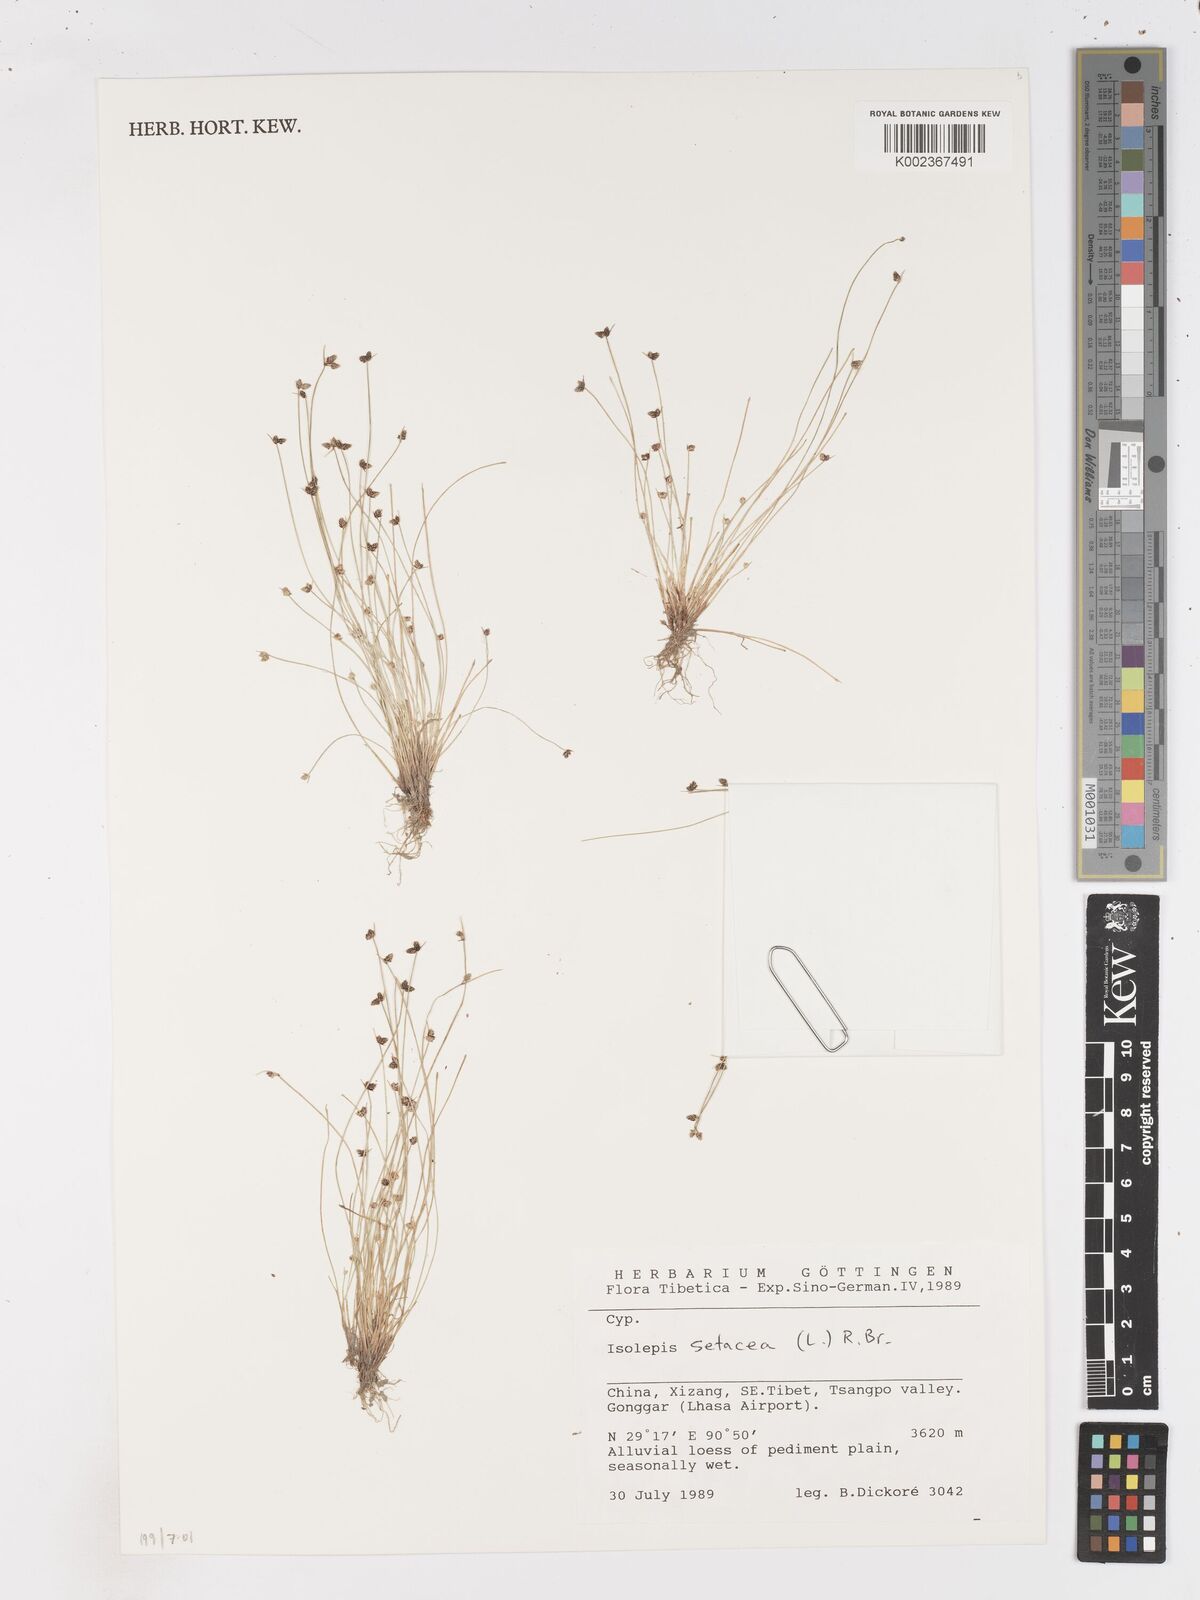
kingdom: Plantae
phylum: Tracheophyta
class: Liliopsida
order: Poales
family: Cyperaceae
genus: Isolepis
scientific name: Isolepis setacea
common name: Bristle club-rush
